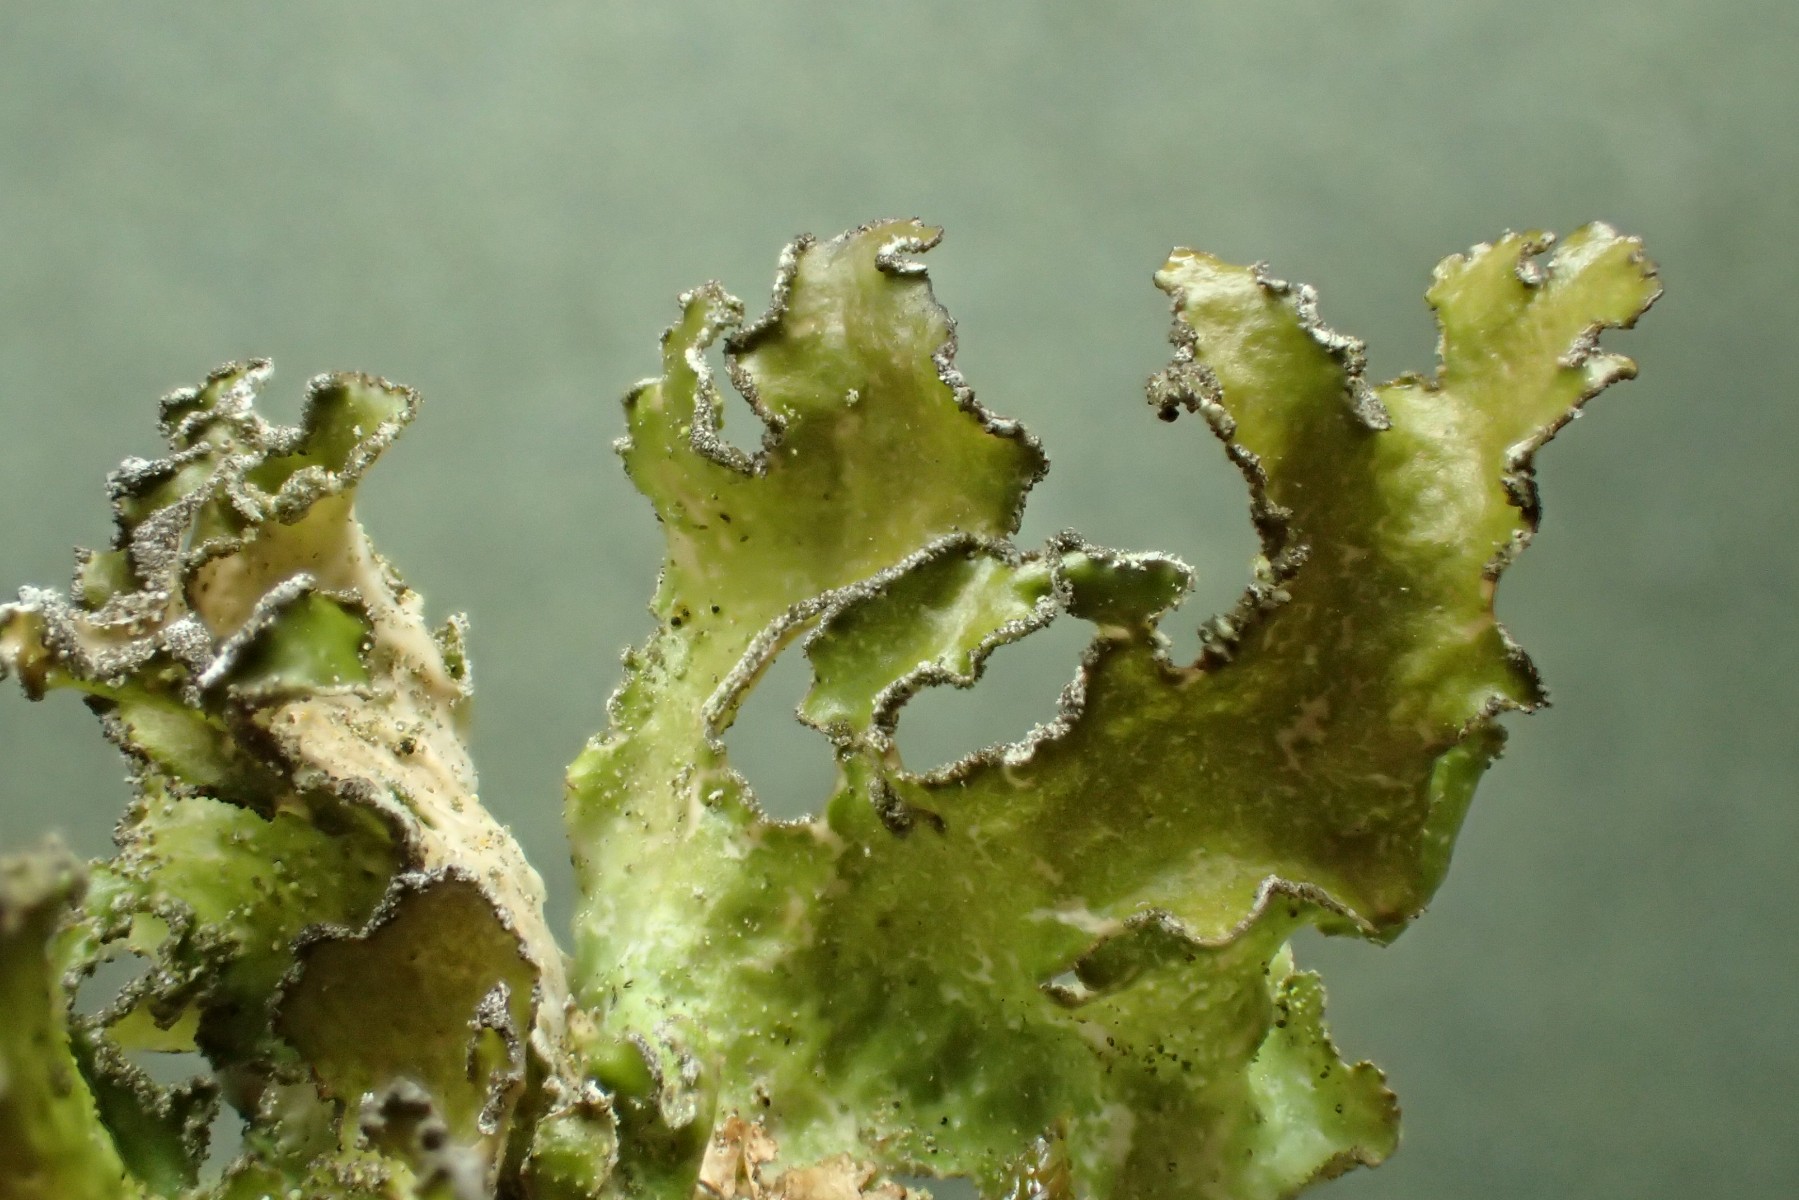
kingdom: Fungi
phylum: Ascomycota
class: Lecanoromycetes
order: Lecanorales
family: Parmeliaceae
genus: Nephromopsis
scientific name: Nephromopsis chlorophylla
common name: olivenbrun kruslav
